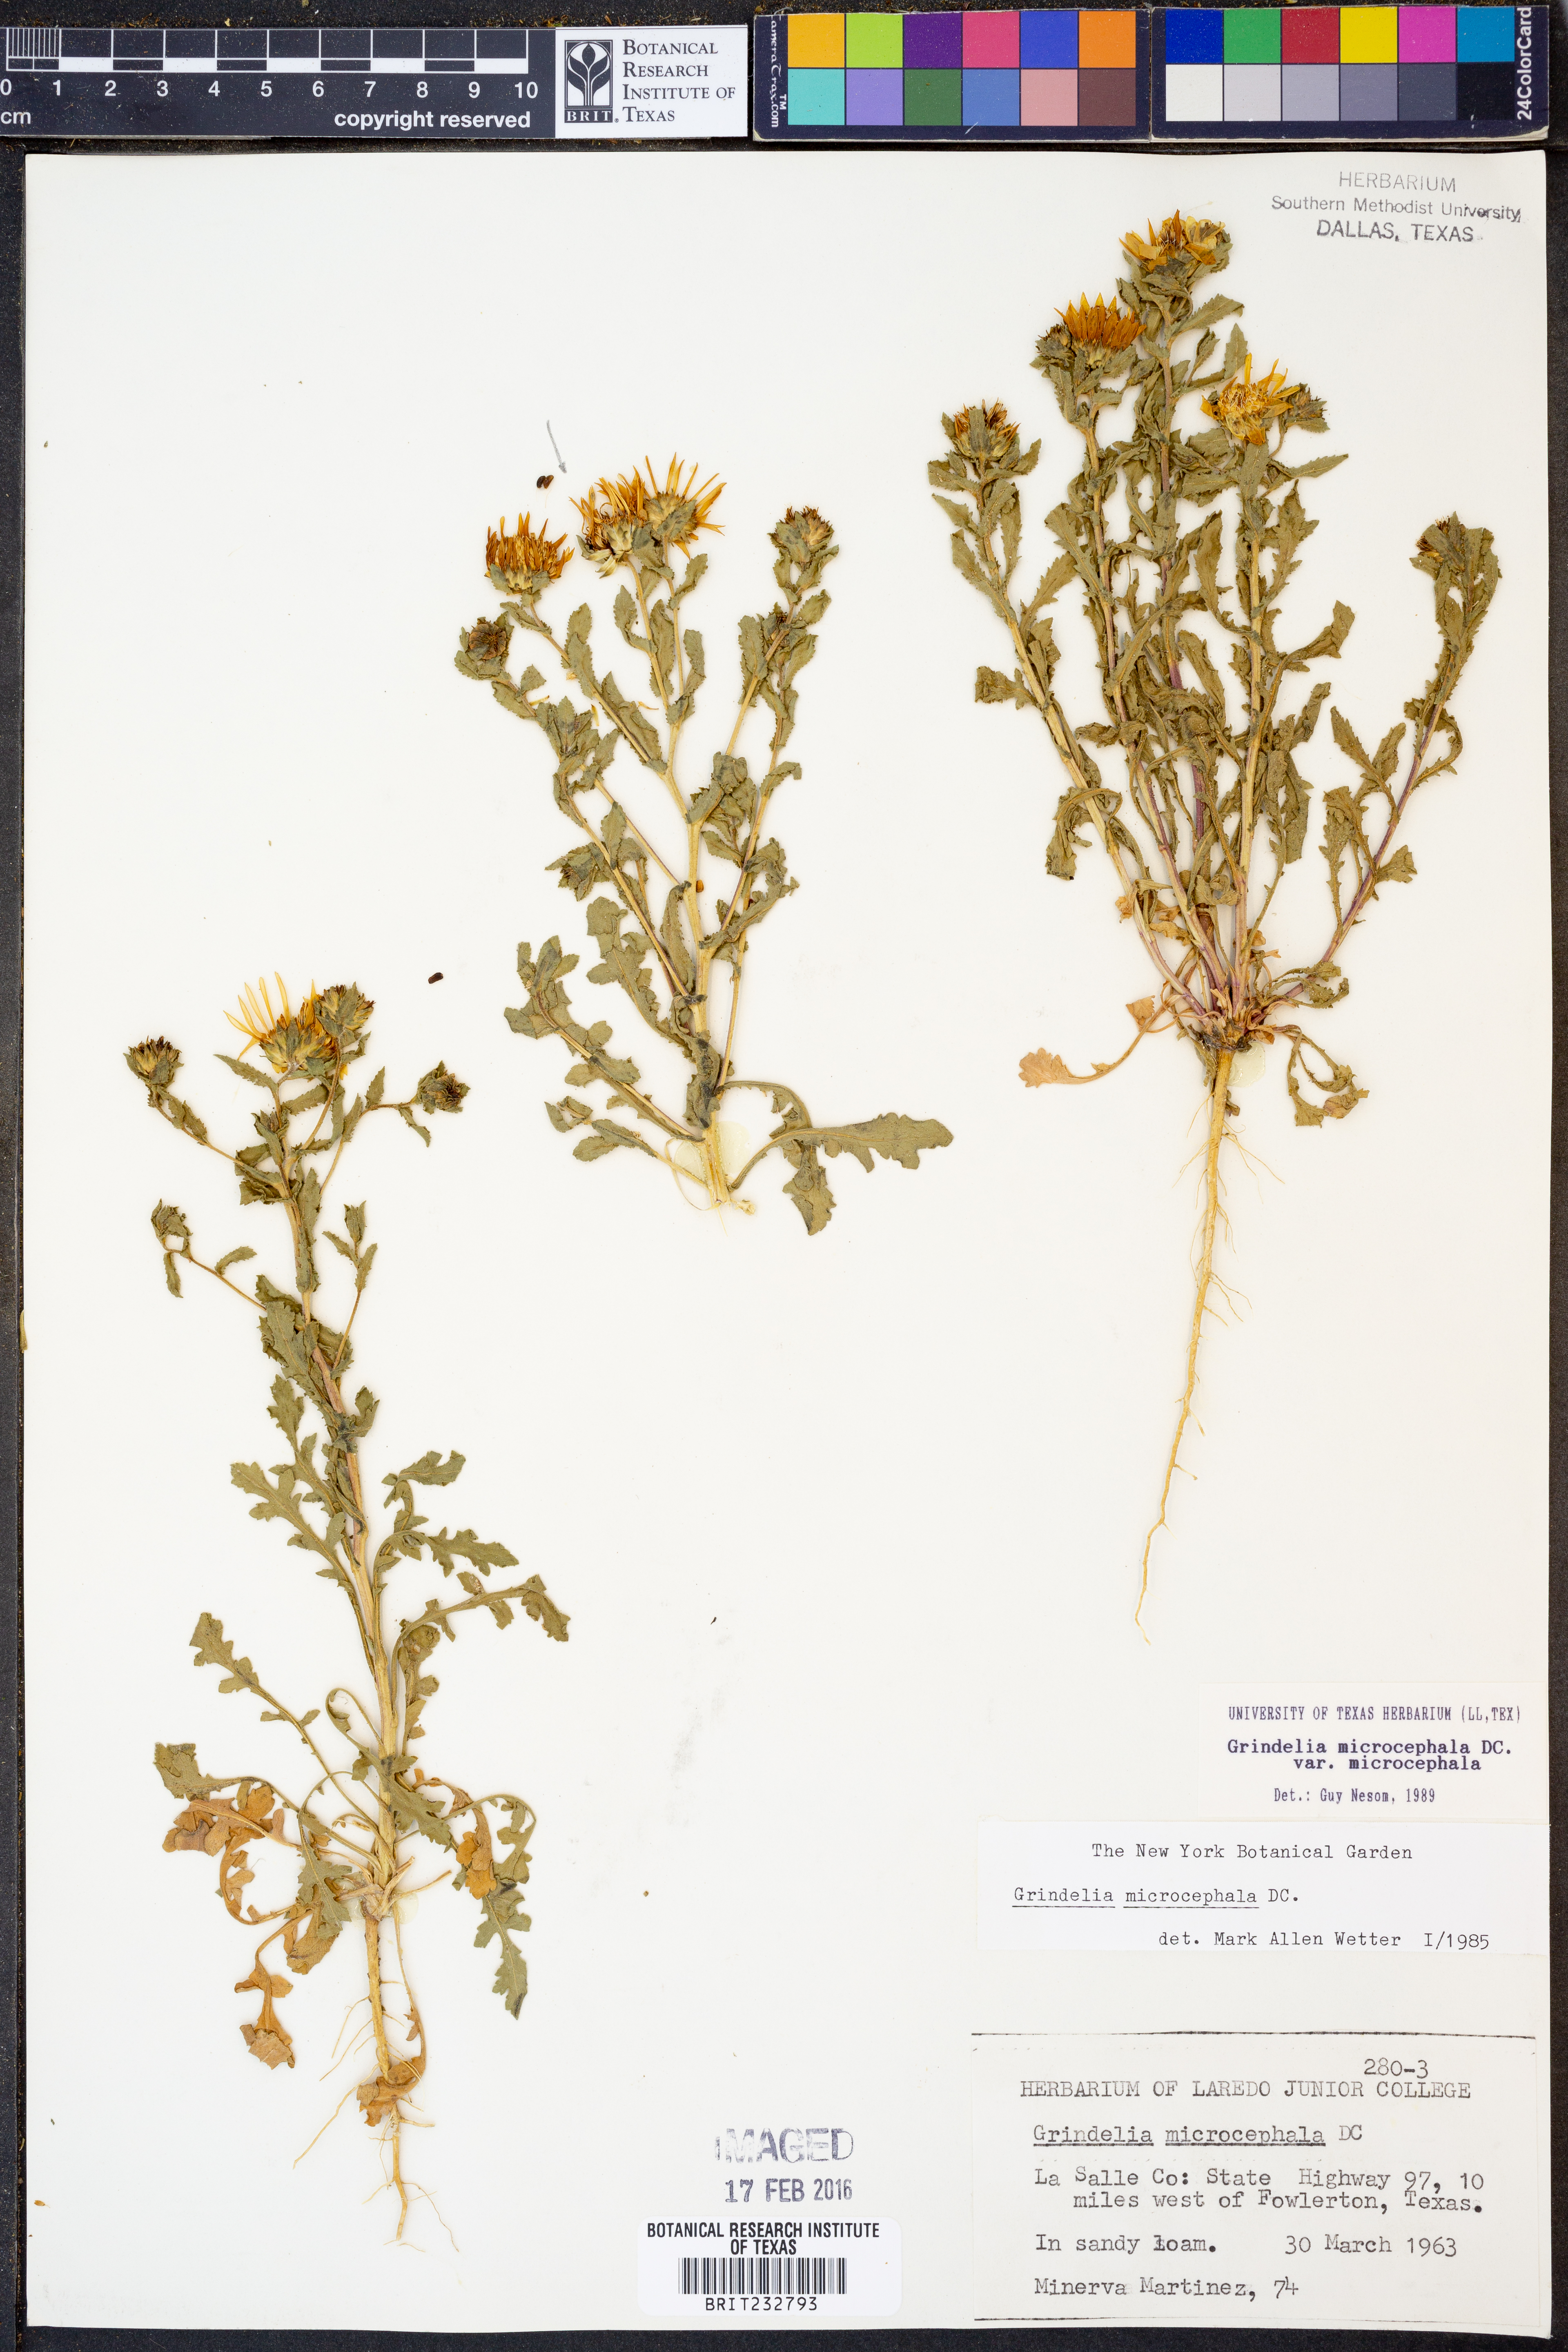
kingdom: Plantae
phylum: Tracheophyta
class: Magnoliopsida
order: Asterales
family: Asteraceae
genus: Grindelia
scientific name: Grindelia microcephala
